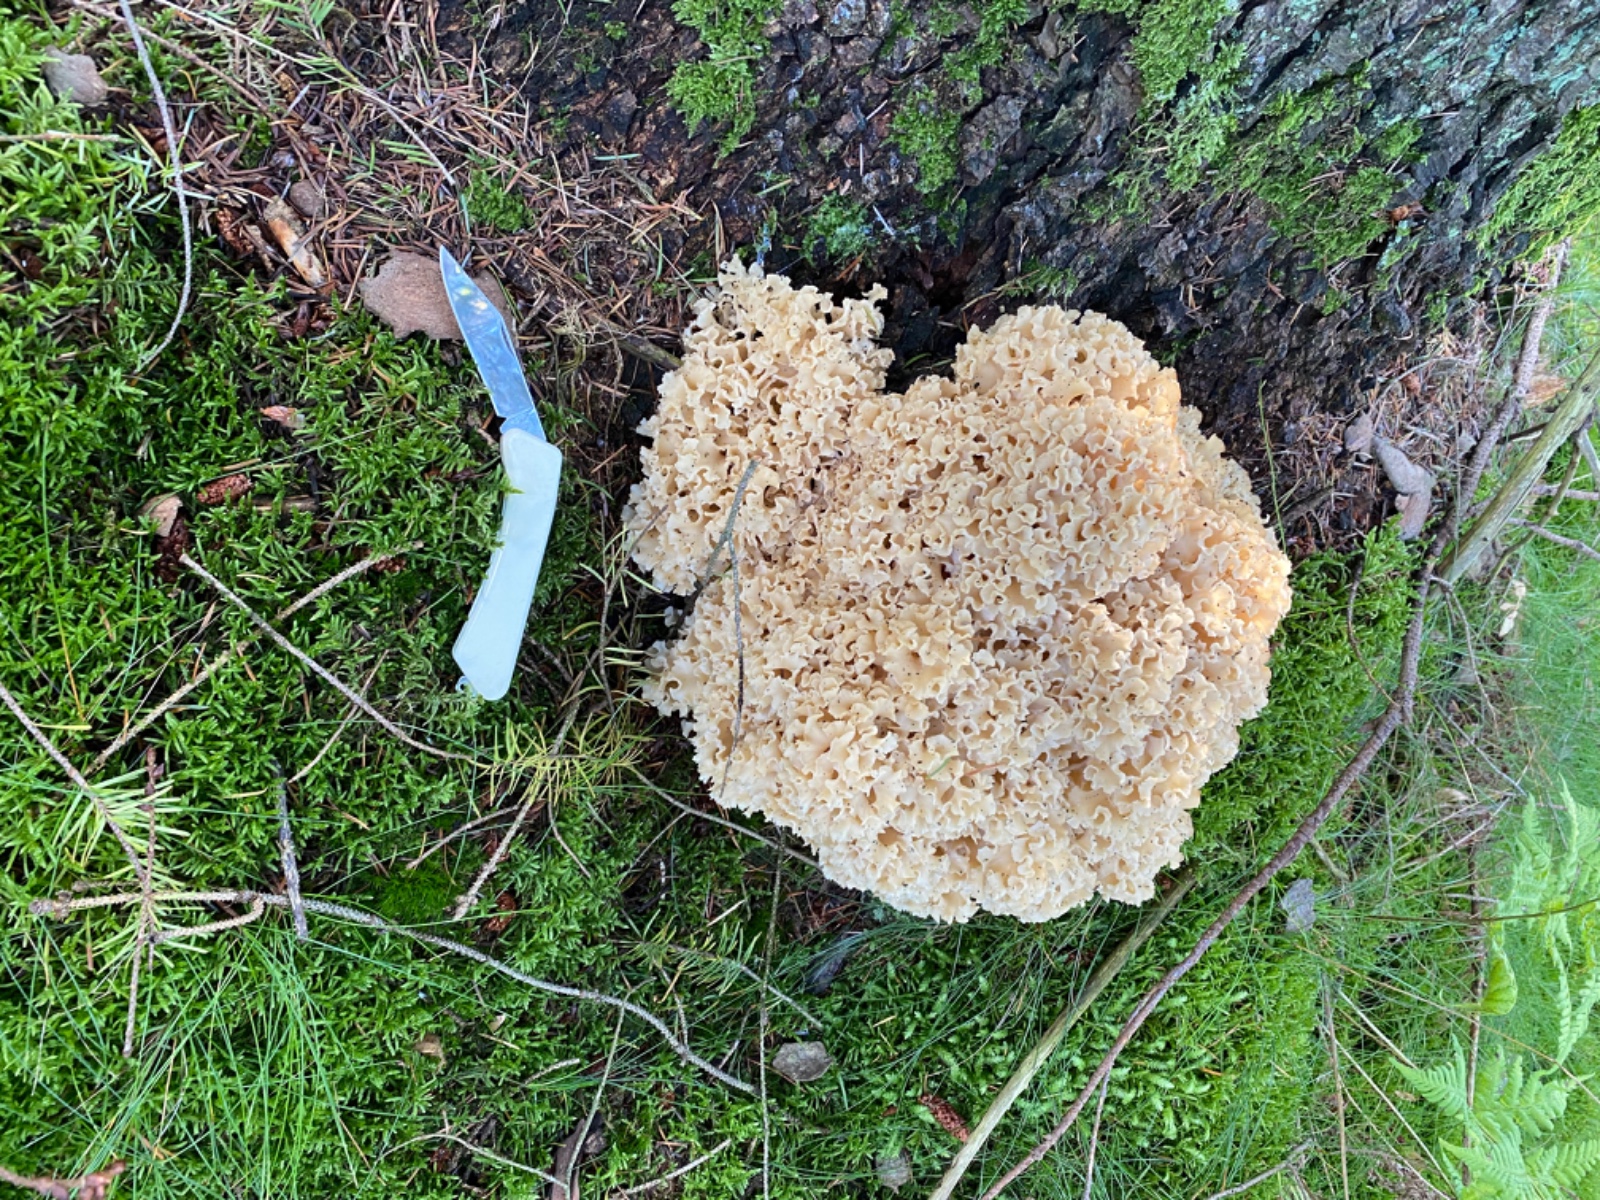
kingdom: Fungi
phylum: Basidiomycota
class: Agaricomycetes
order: Polyporales
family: Sparassidaceae
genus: Sparassis
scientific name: Sparassis crispa
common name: kruset blomkålssvamp
